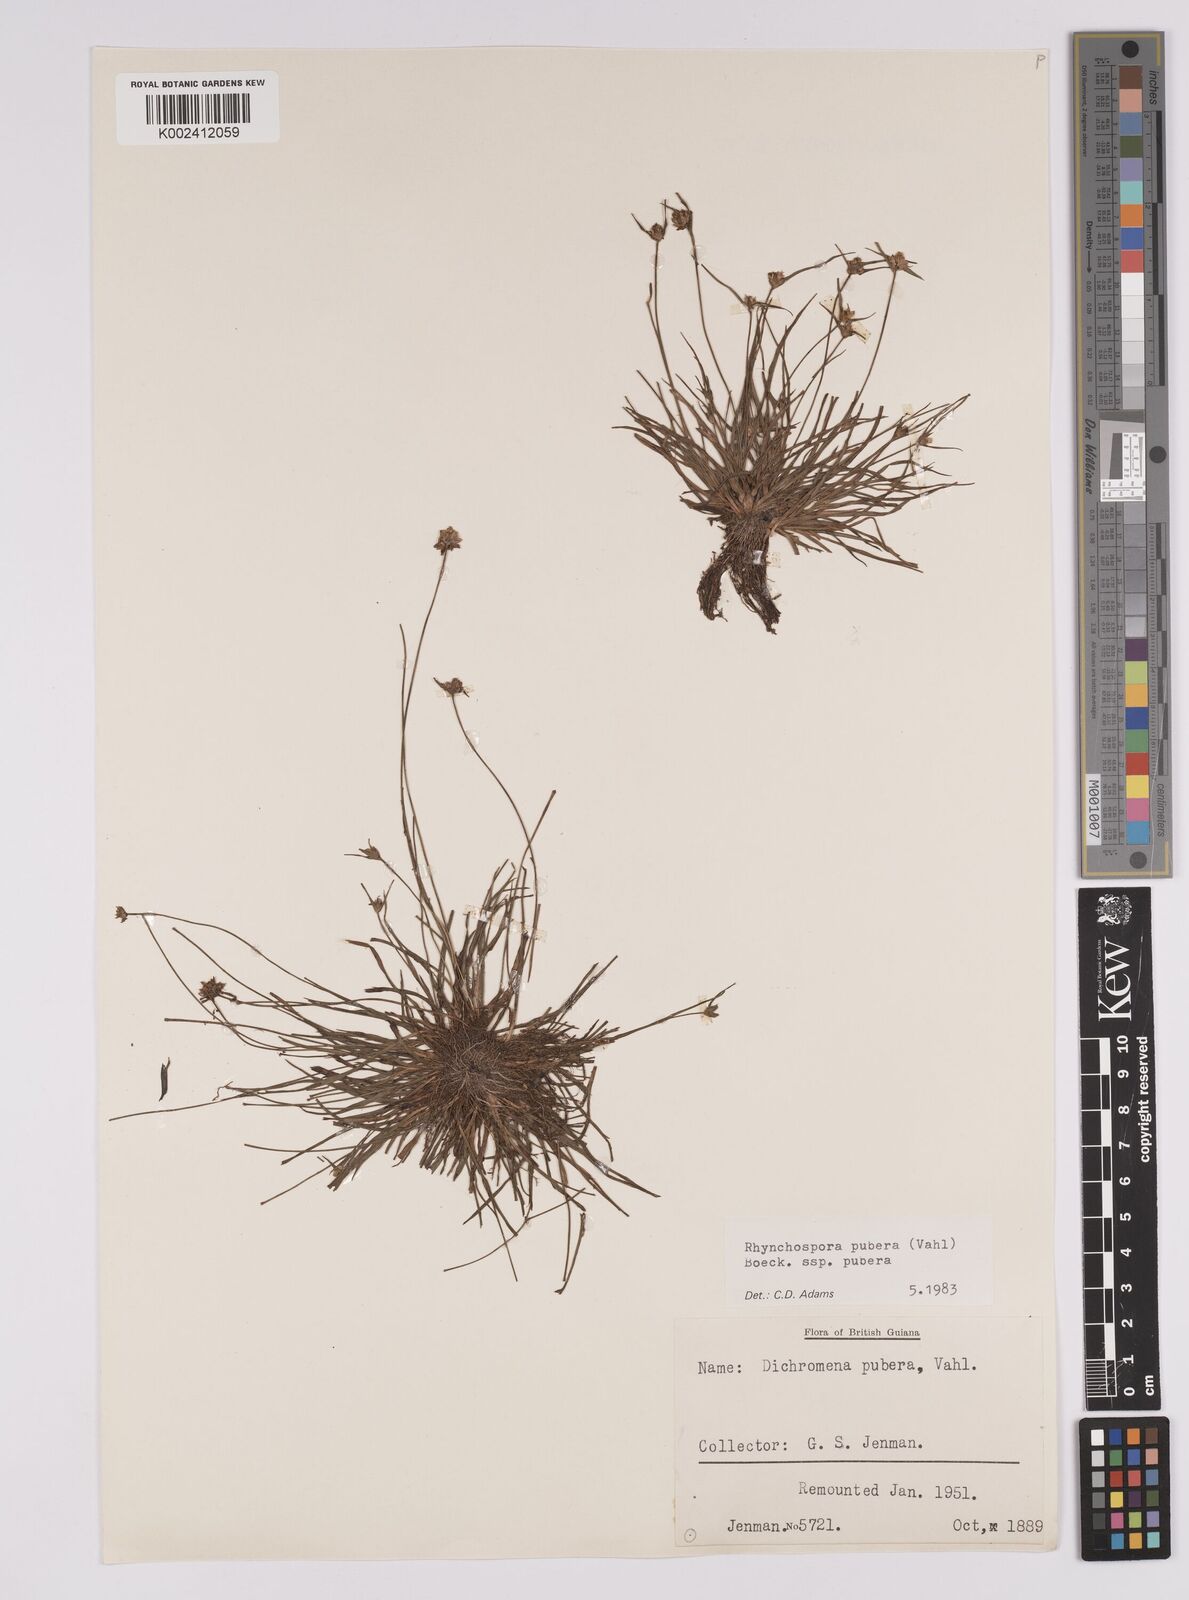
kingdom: Plantae
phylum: Tracheophyta
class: Liliopsida
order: Poales
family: Cyperaceae
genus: Rhynchospora
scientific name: Rhynchospora pubera
